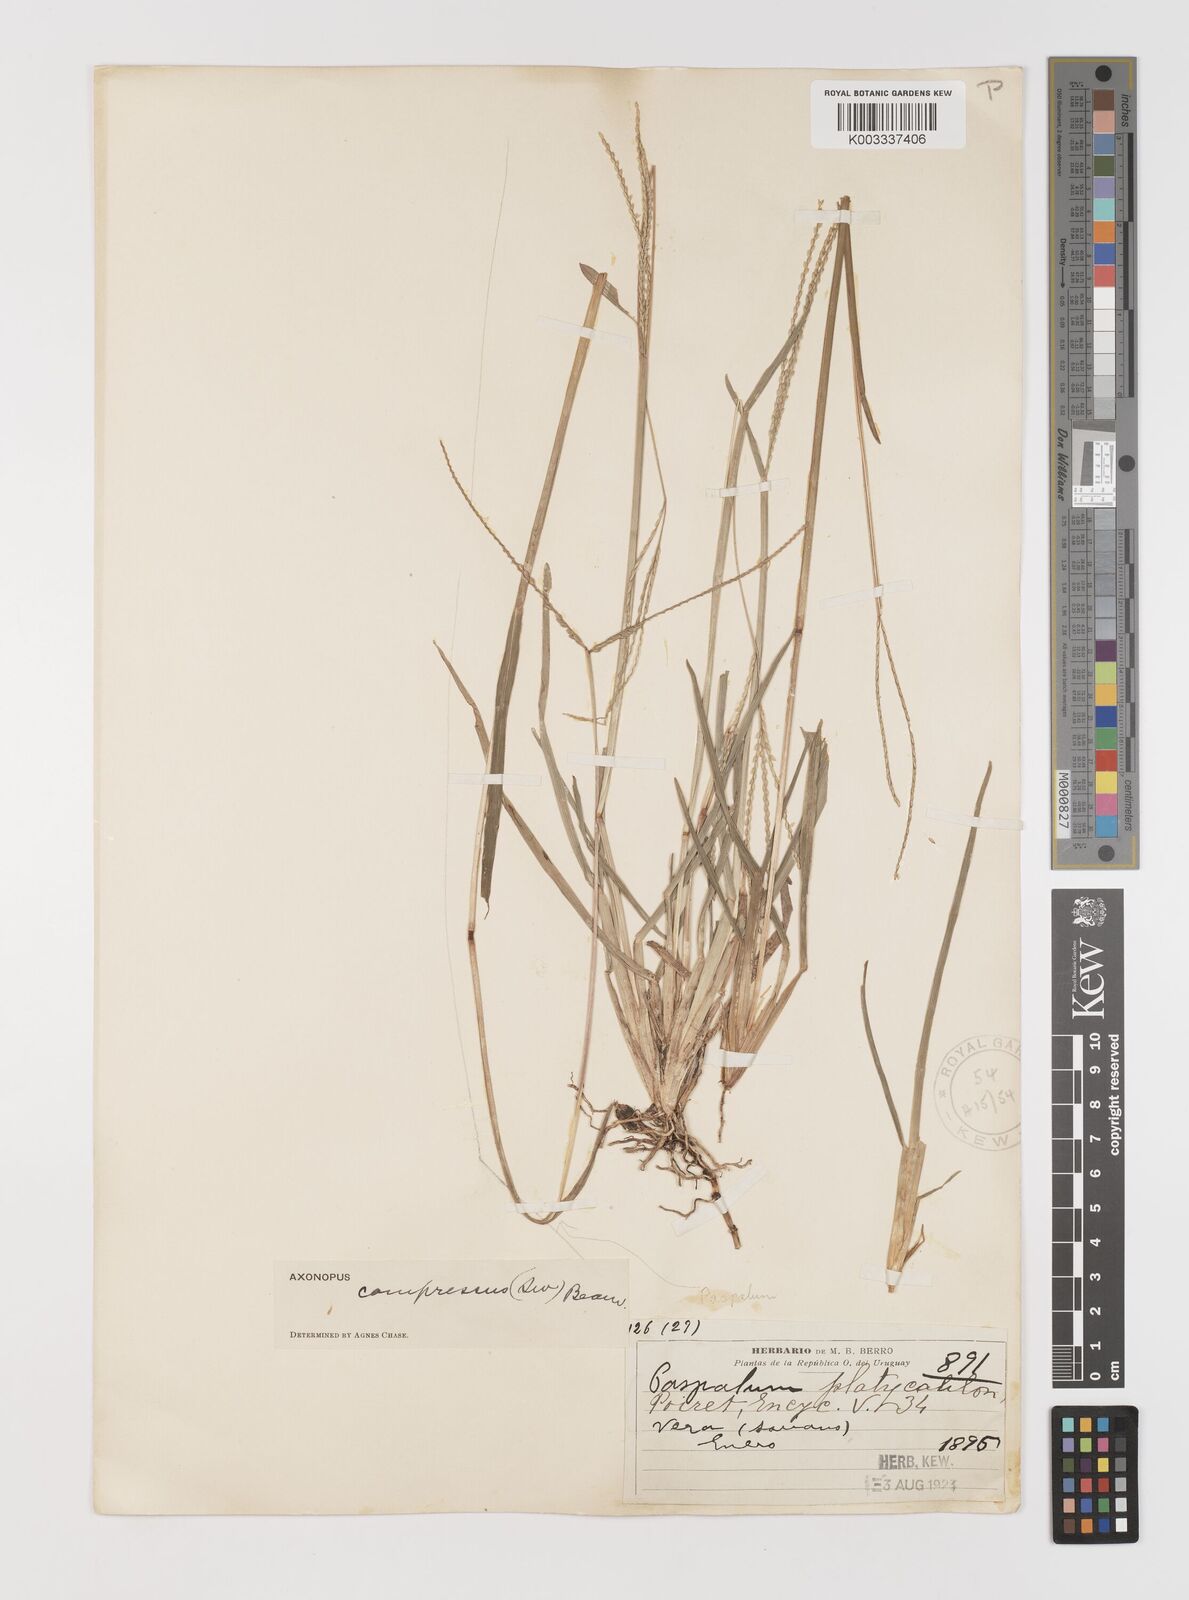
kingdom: Plantae
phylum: Tracheophyta
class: Liliopsida
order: Poales
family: Poaceae
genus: Axonopus
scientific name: Axonopus compressus
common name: American carpet grass
